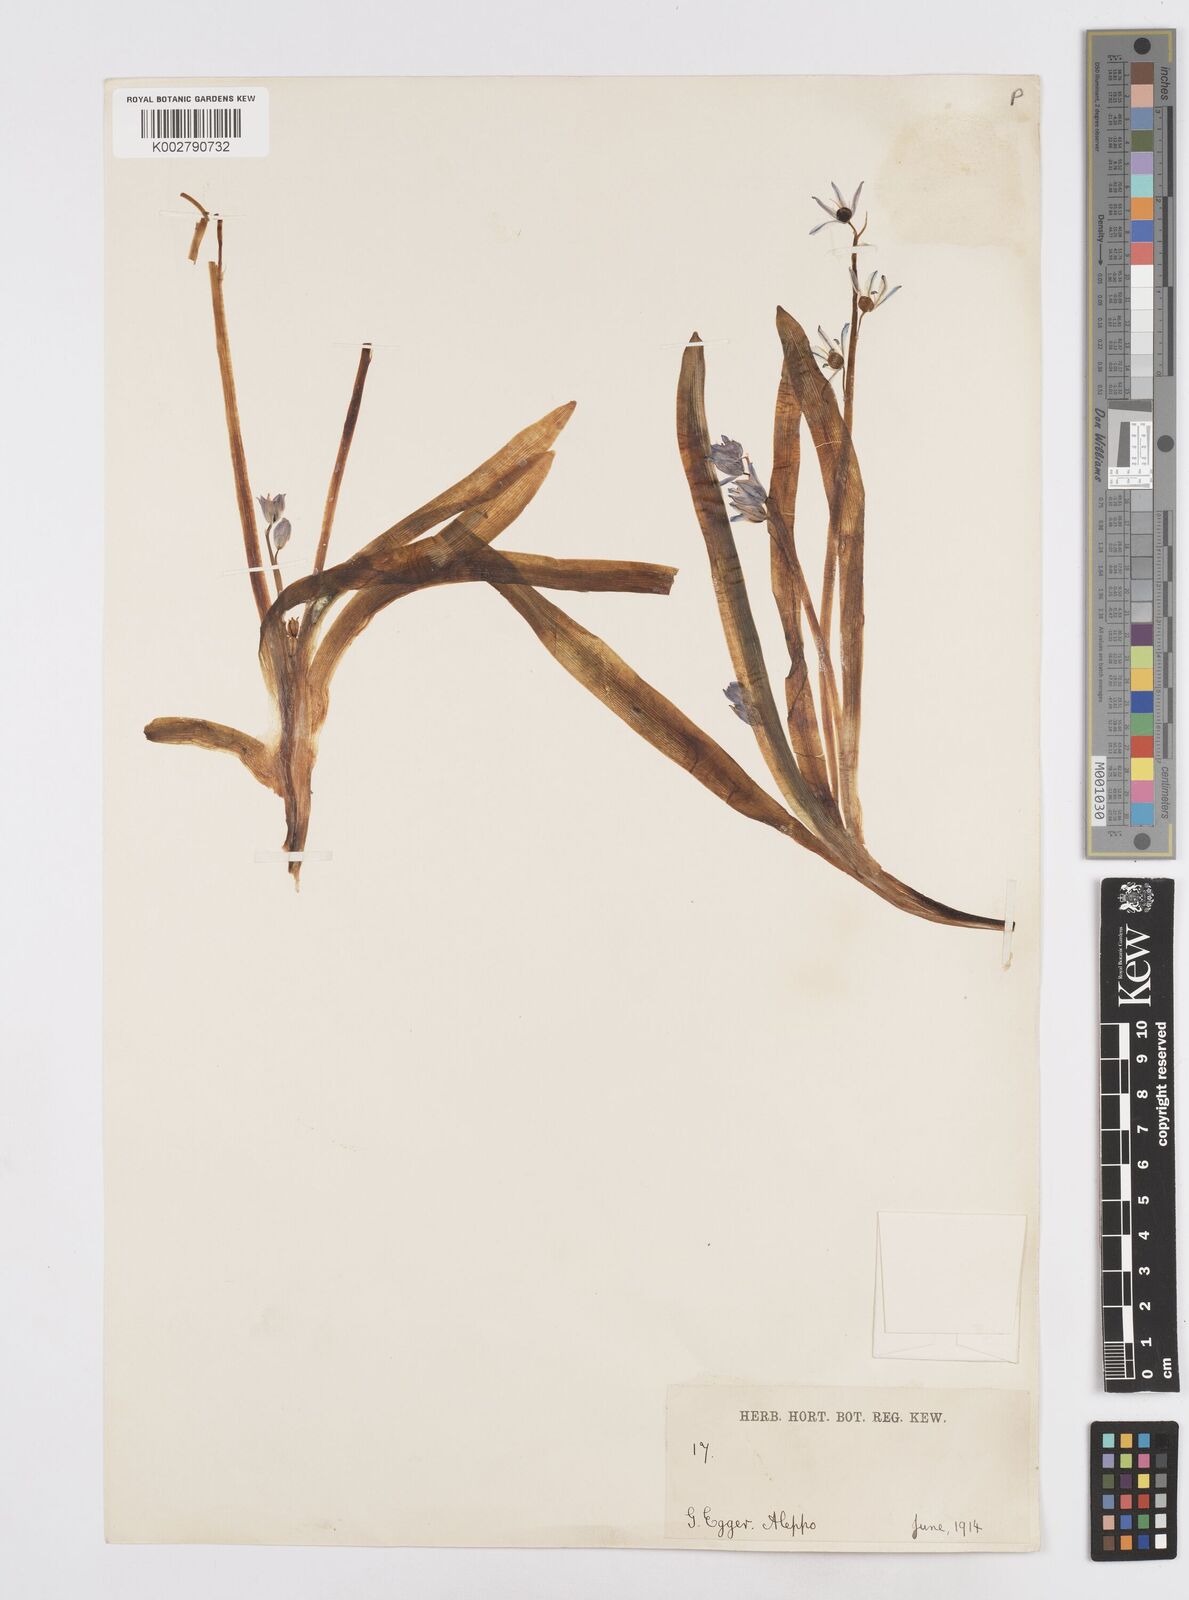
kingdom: Plantae
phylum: Tracheophyta
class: Liliopsida
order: Asparagales
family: Asparagaceae
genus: Scilla
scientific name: Scilla siberica
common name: Siberian squill
